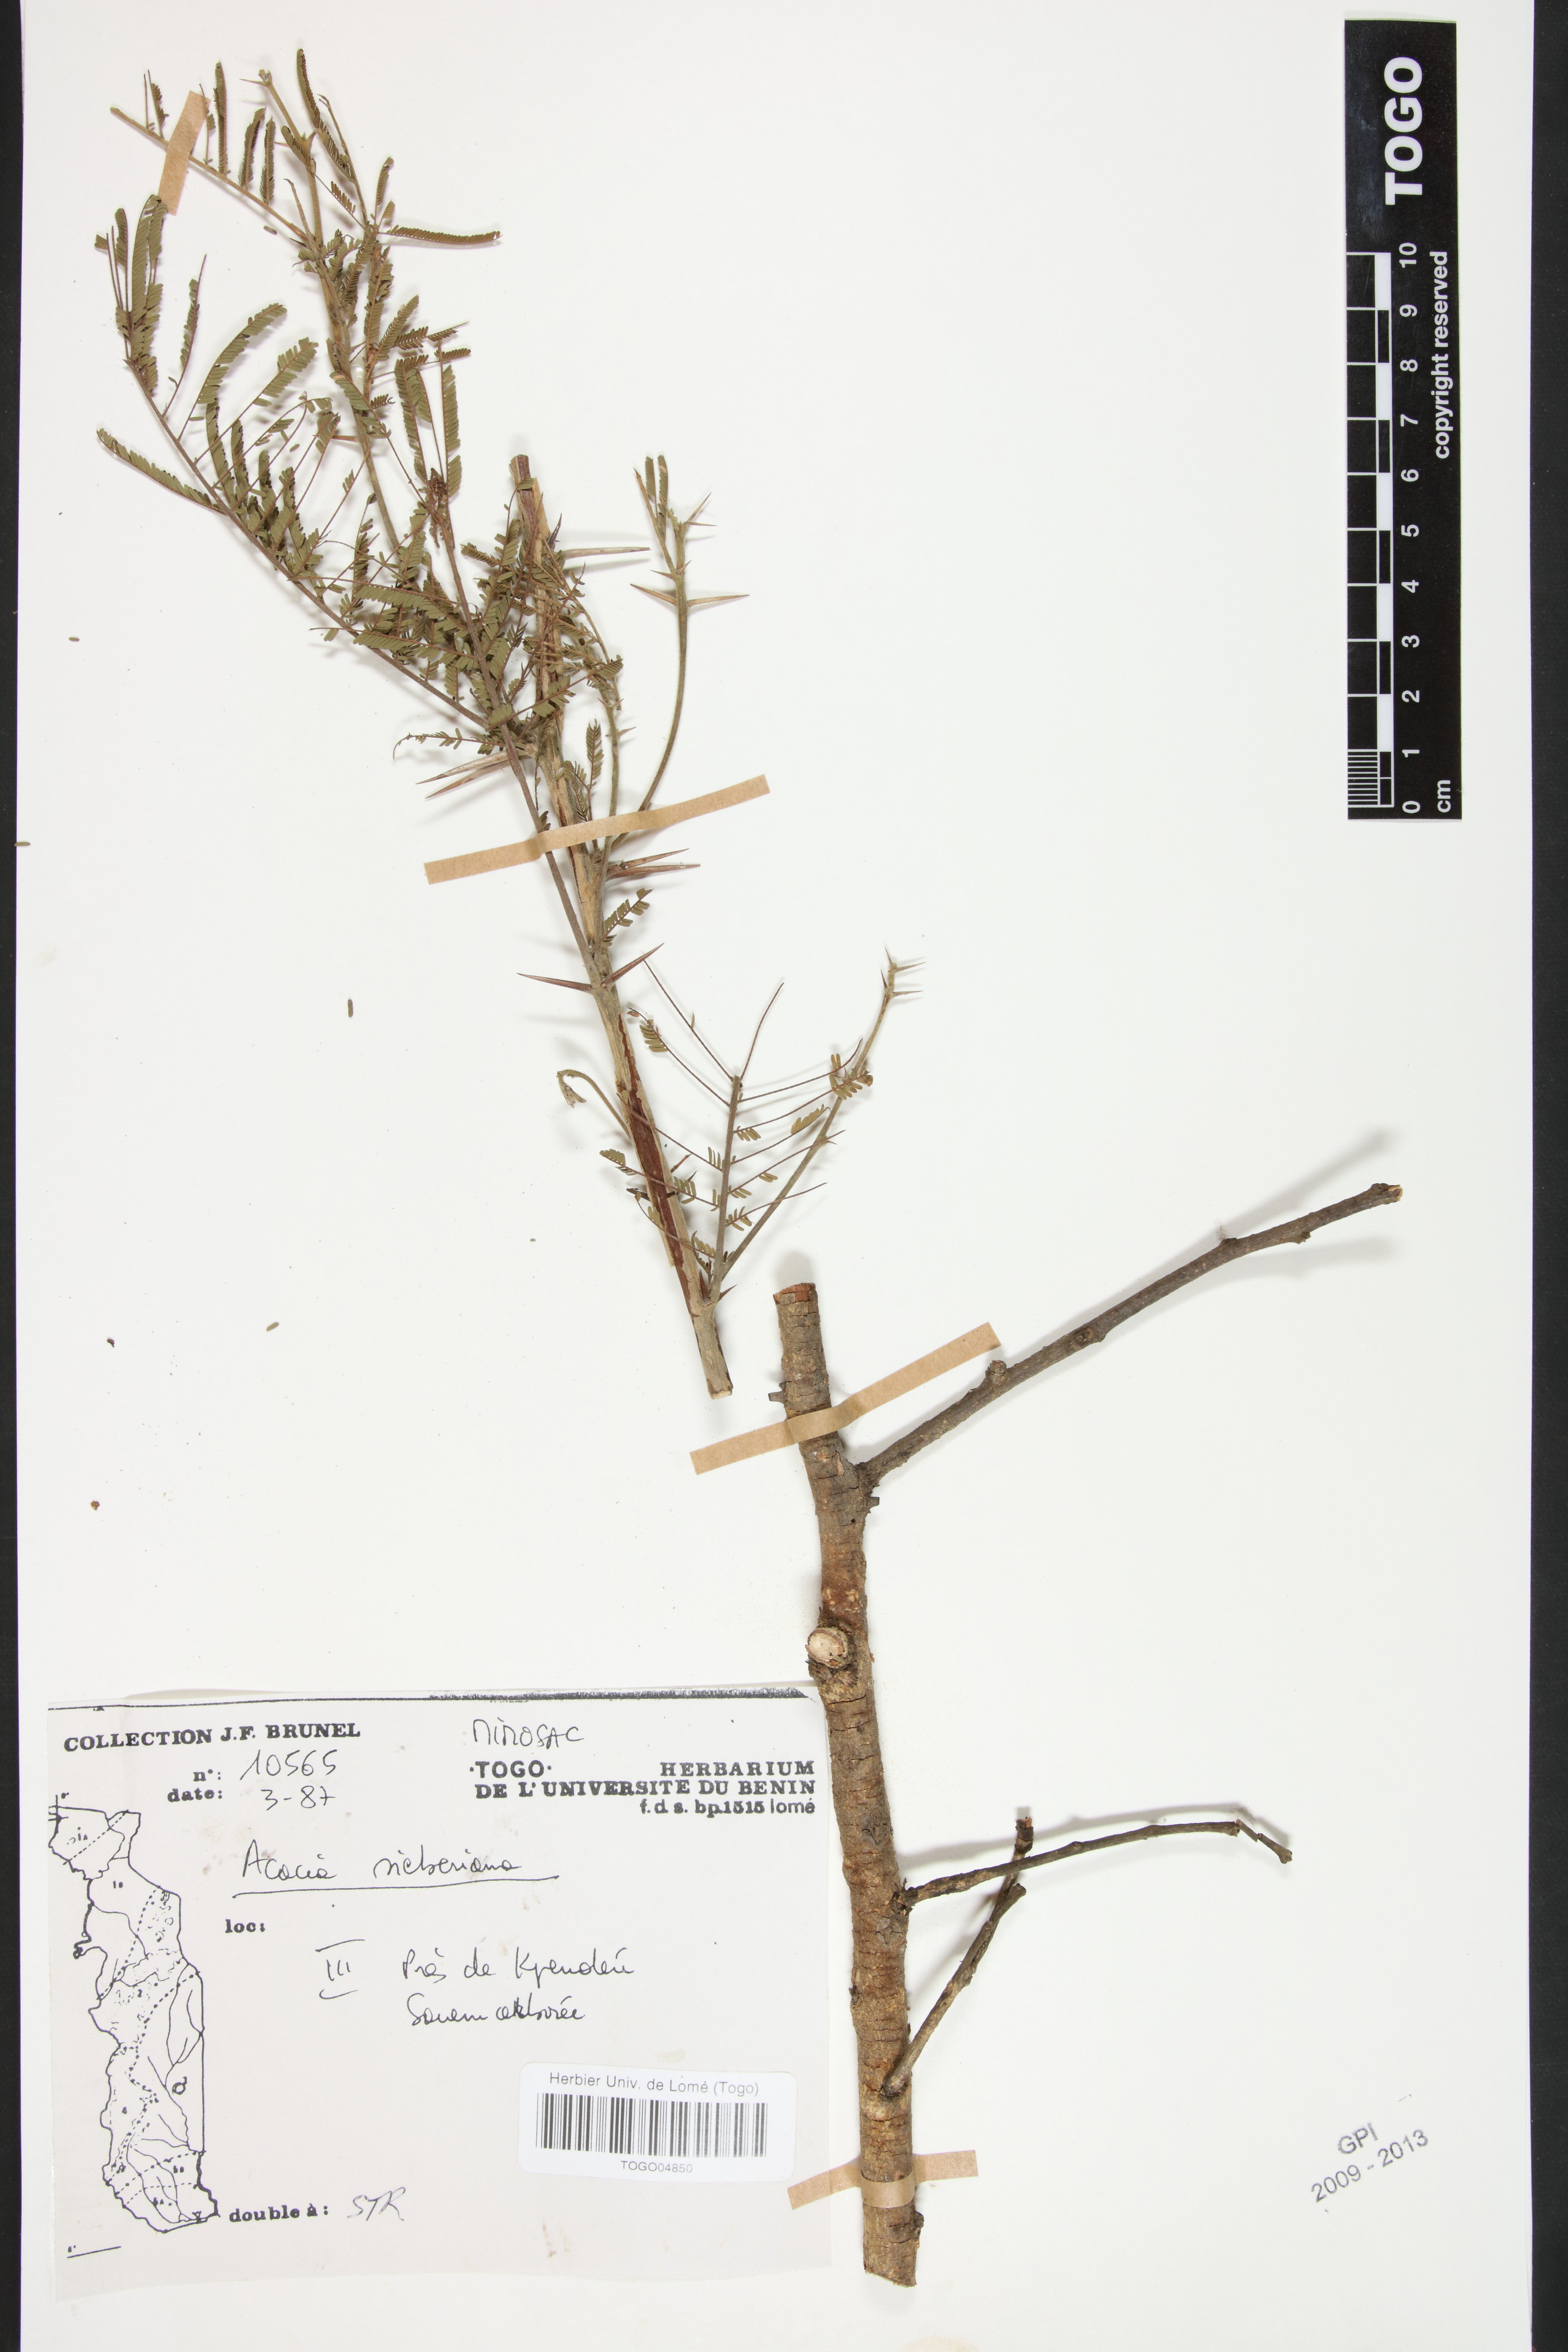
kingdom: Plantae
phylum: Tracheophyta
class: Magnoliopsida
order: Fabales
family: Fabaceae
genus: Vachellia
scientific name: Vachellia sieberiana
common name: Flat-topped thorn
